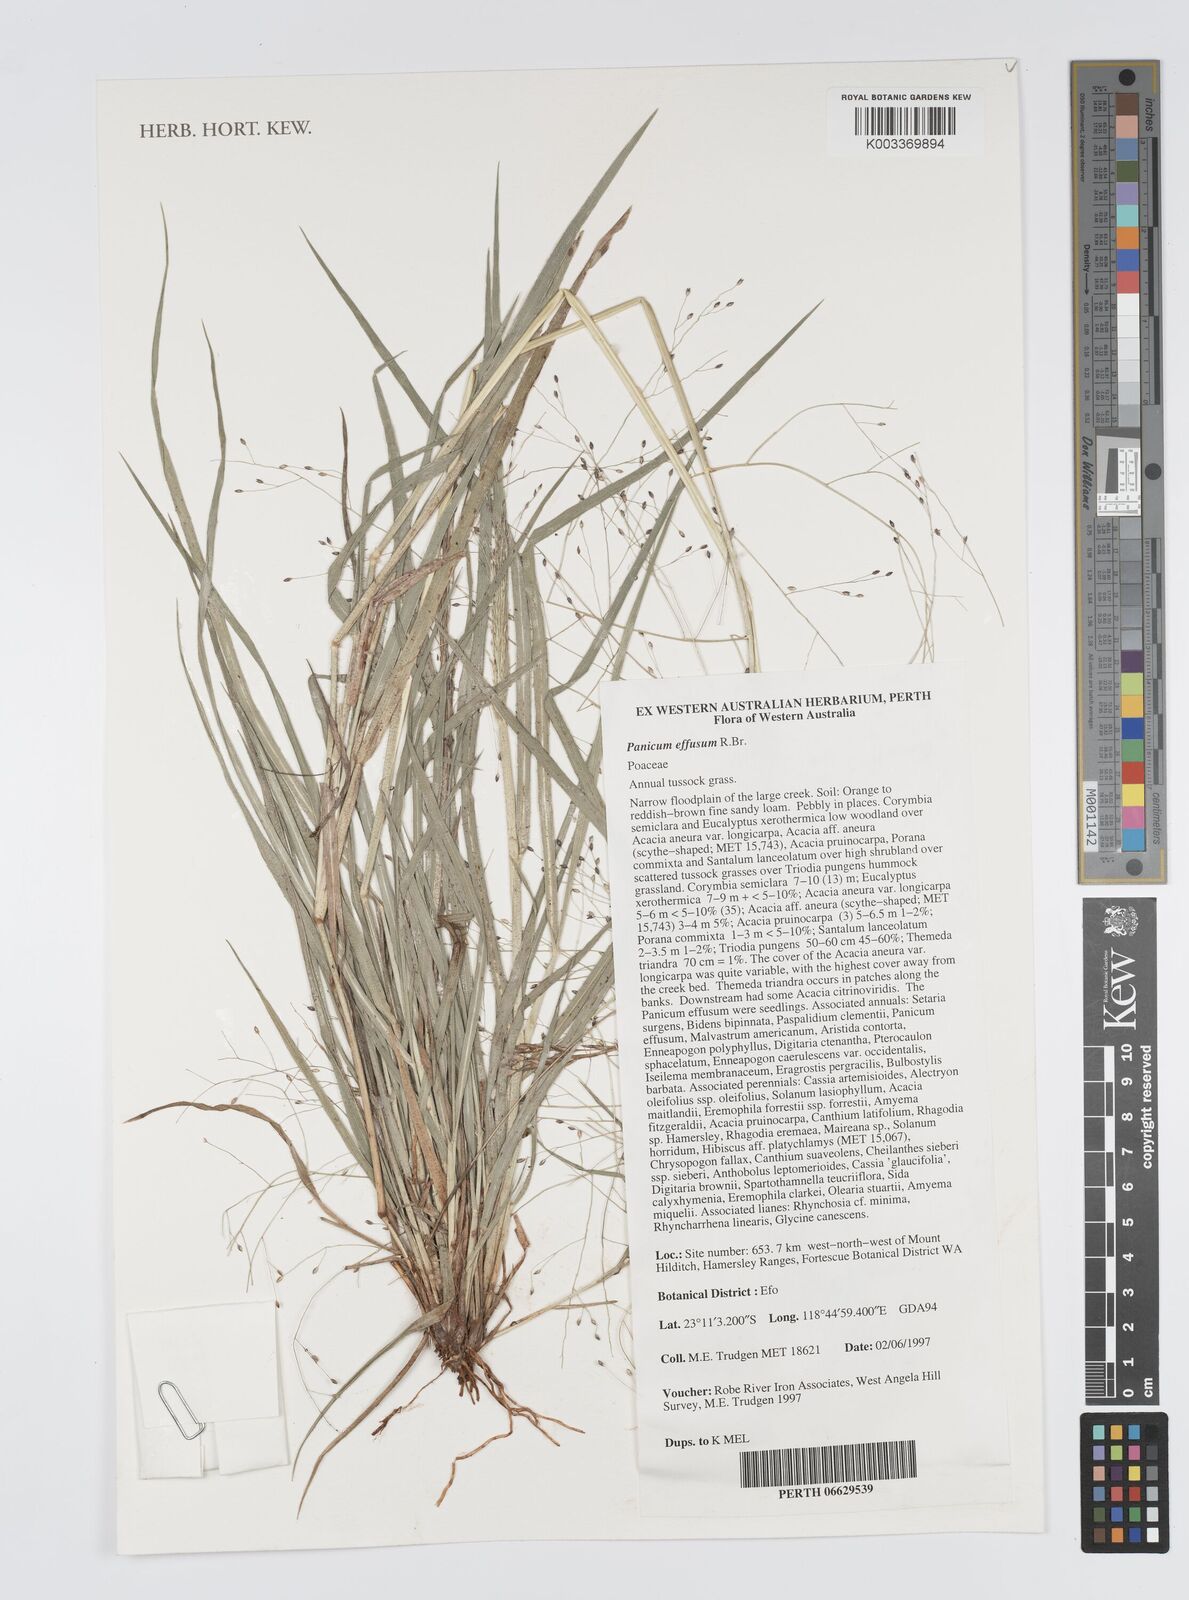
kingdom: Plantae
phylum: Tracheophyta
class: Liliopsida
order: Poales
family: Poaceae
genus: Panicum
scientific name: Panicum effusum
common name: Hairy panic grass
